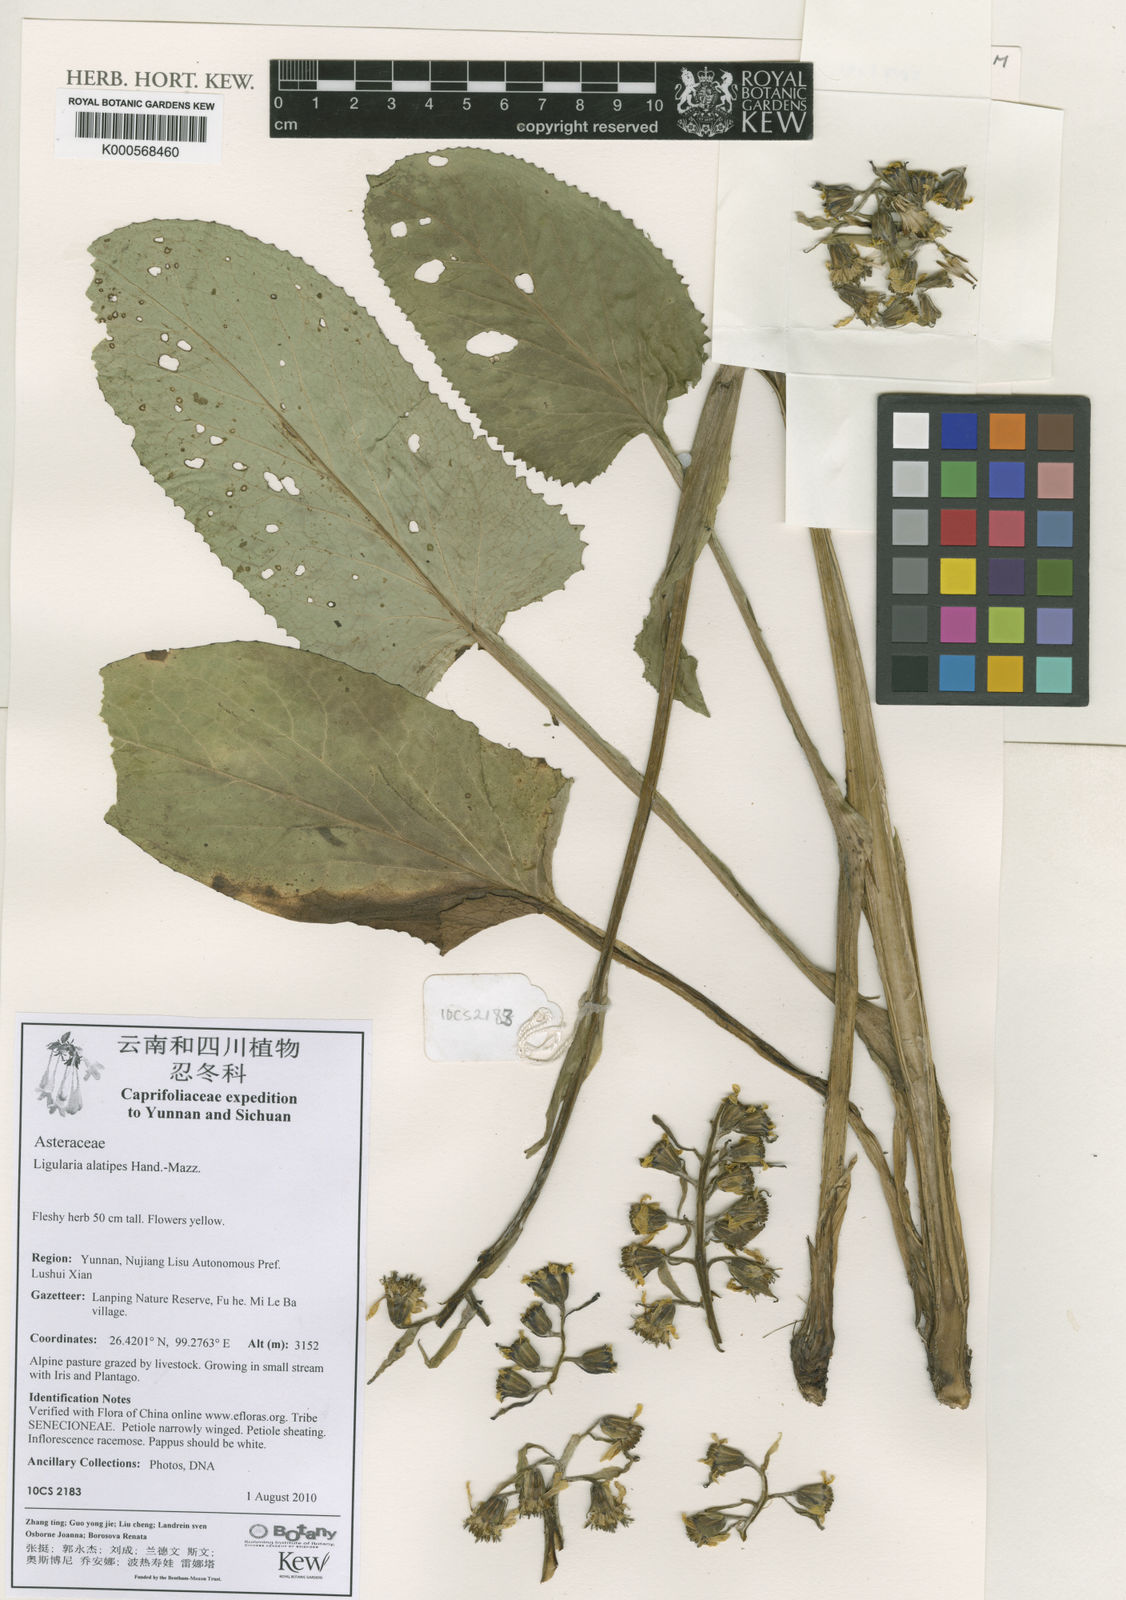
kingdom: Plantae
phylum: Tracheophyta
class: Magnoliopsida
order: Asterales
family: Asteraceae
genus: Ligularia
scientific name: Ligularia kanaitzensis
